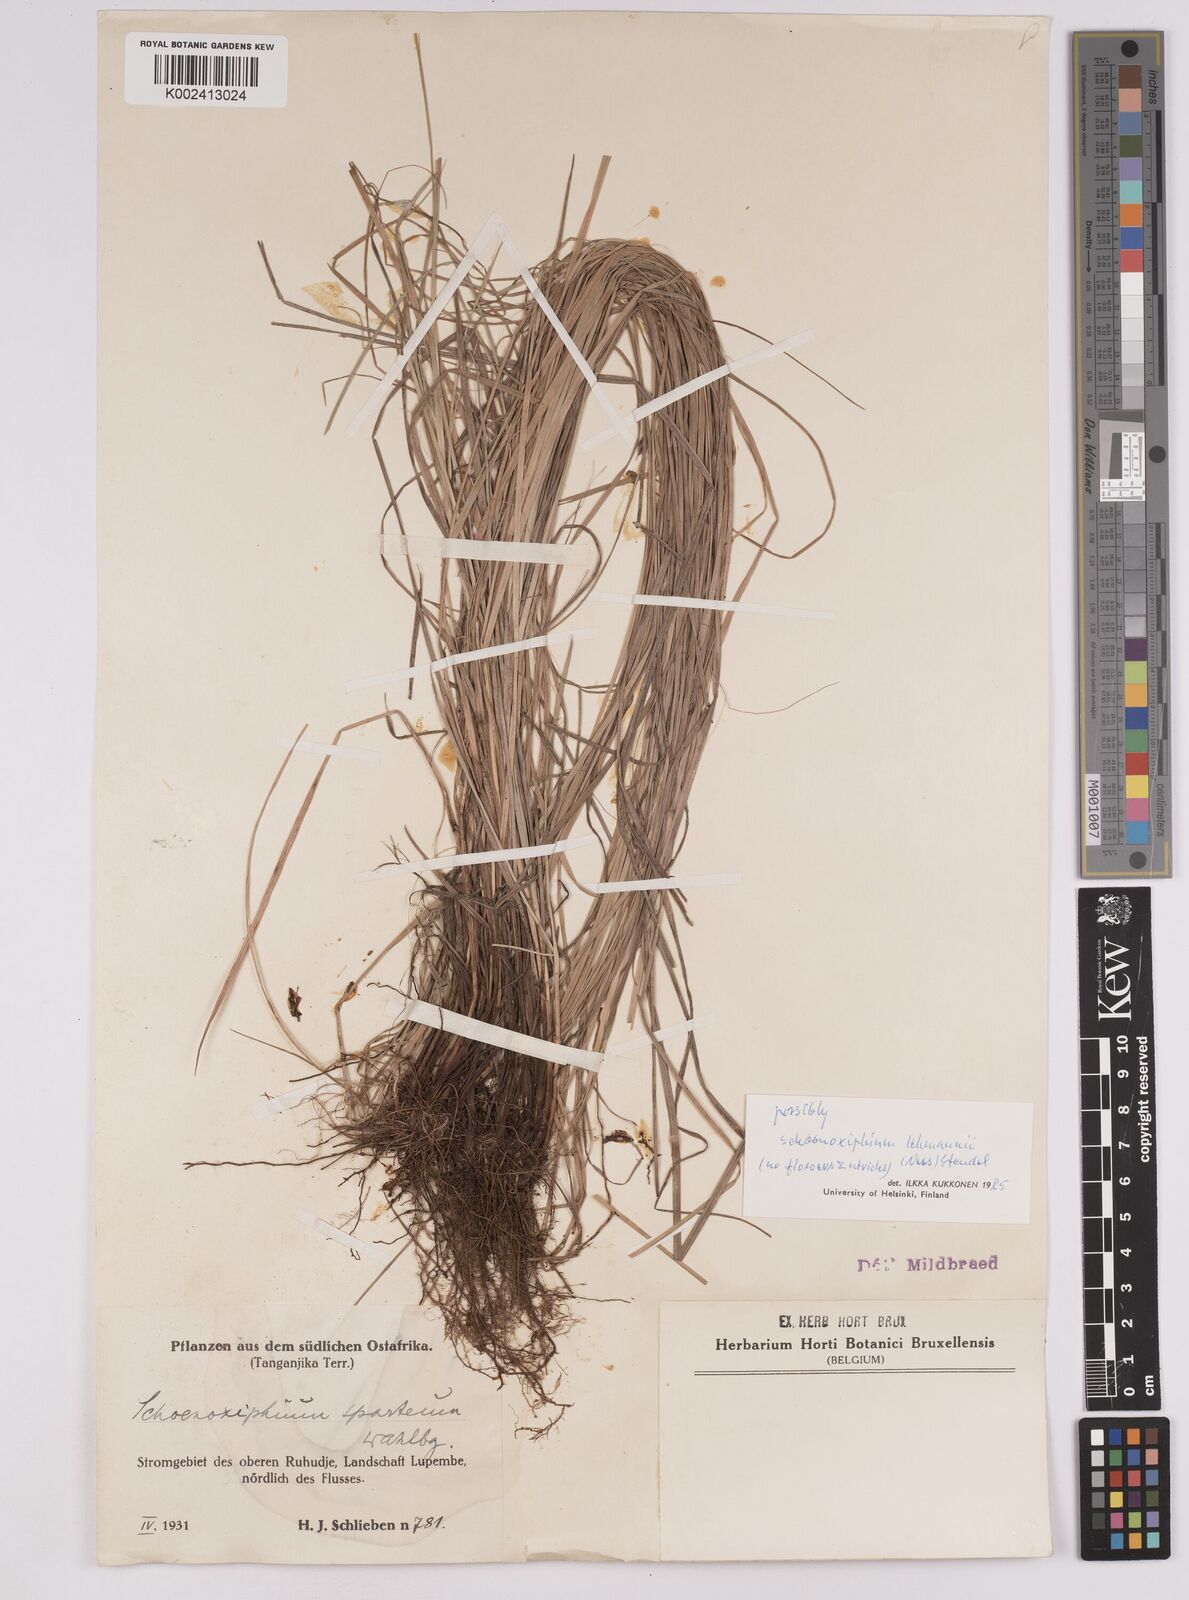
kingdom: Plantae
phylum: Tracheophyta
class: Liliopsida
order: Poales
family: Cyperaceae
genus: Carex
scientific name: Carex uhligii
